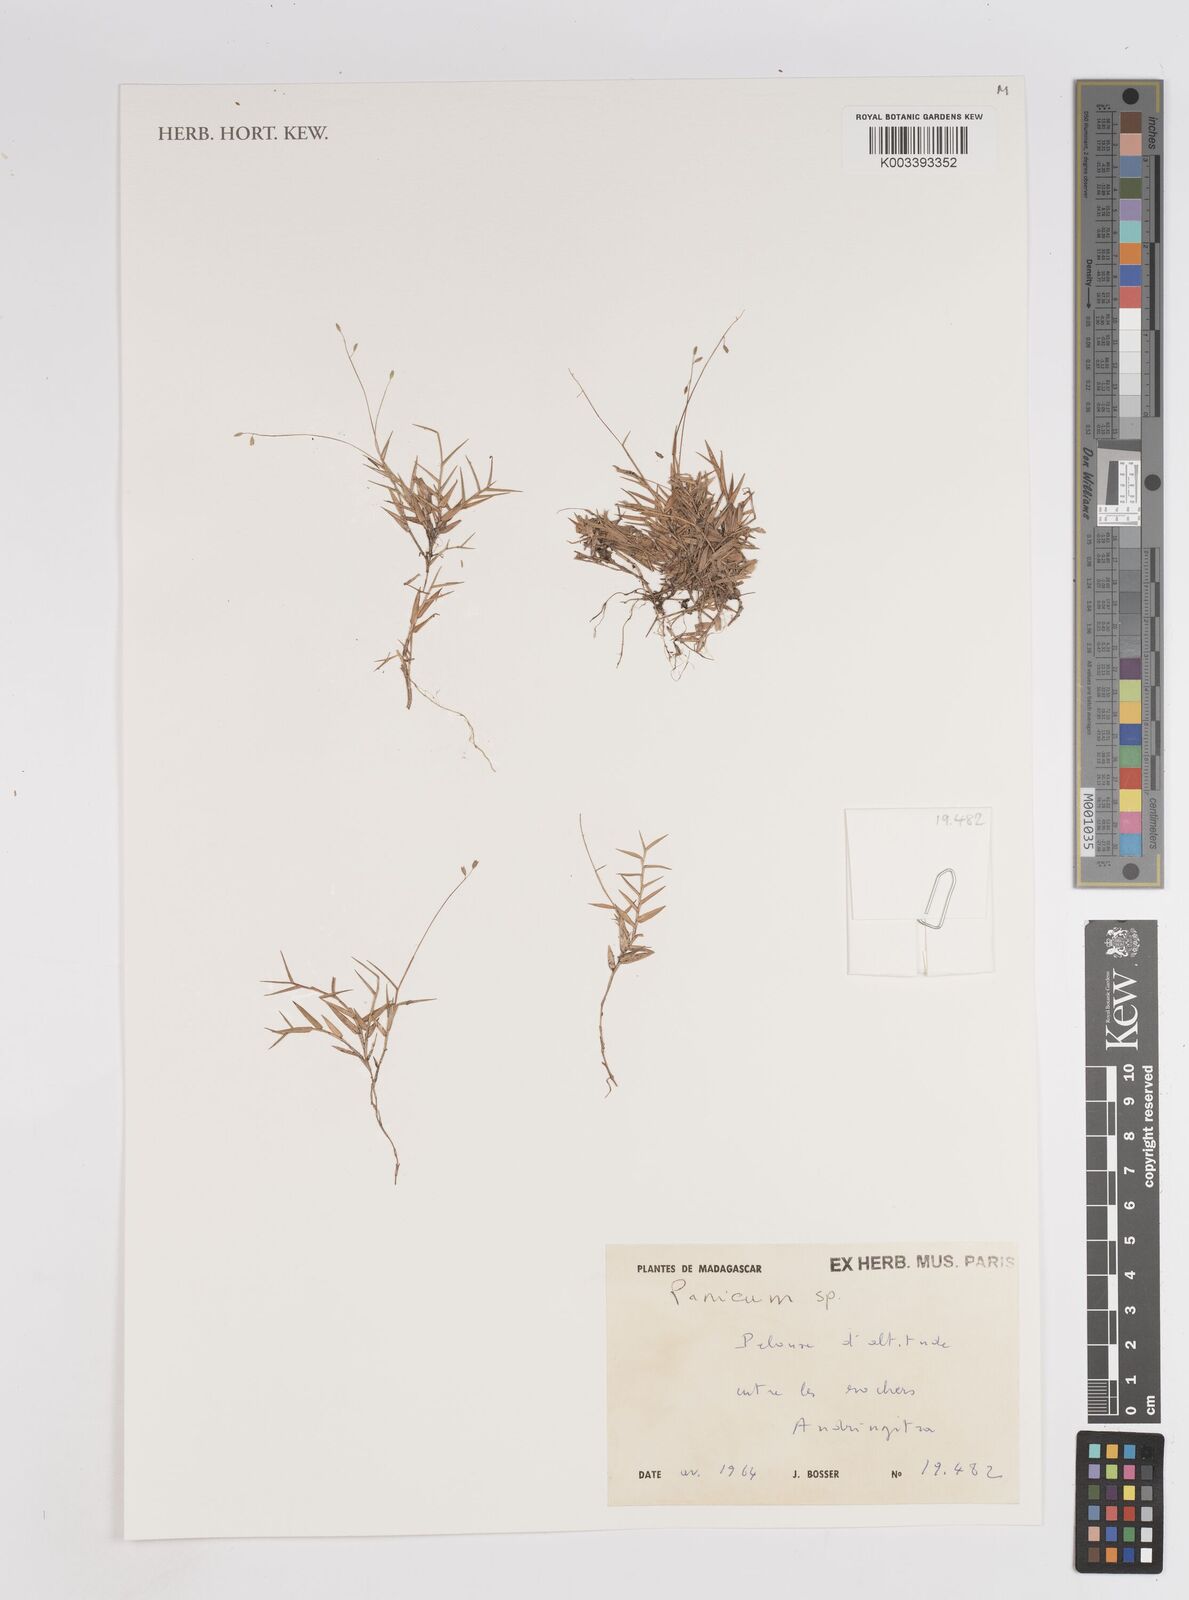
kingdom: Plantae
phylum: Tracheophyta
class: Liliopsida
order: Poales
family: Poaceae
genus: Panicum
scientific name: Panicum
